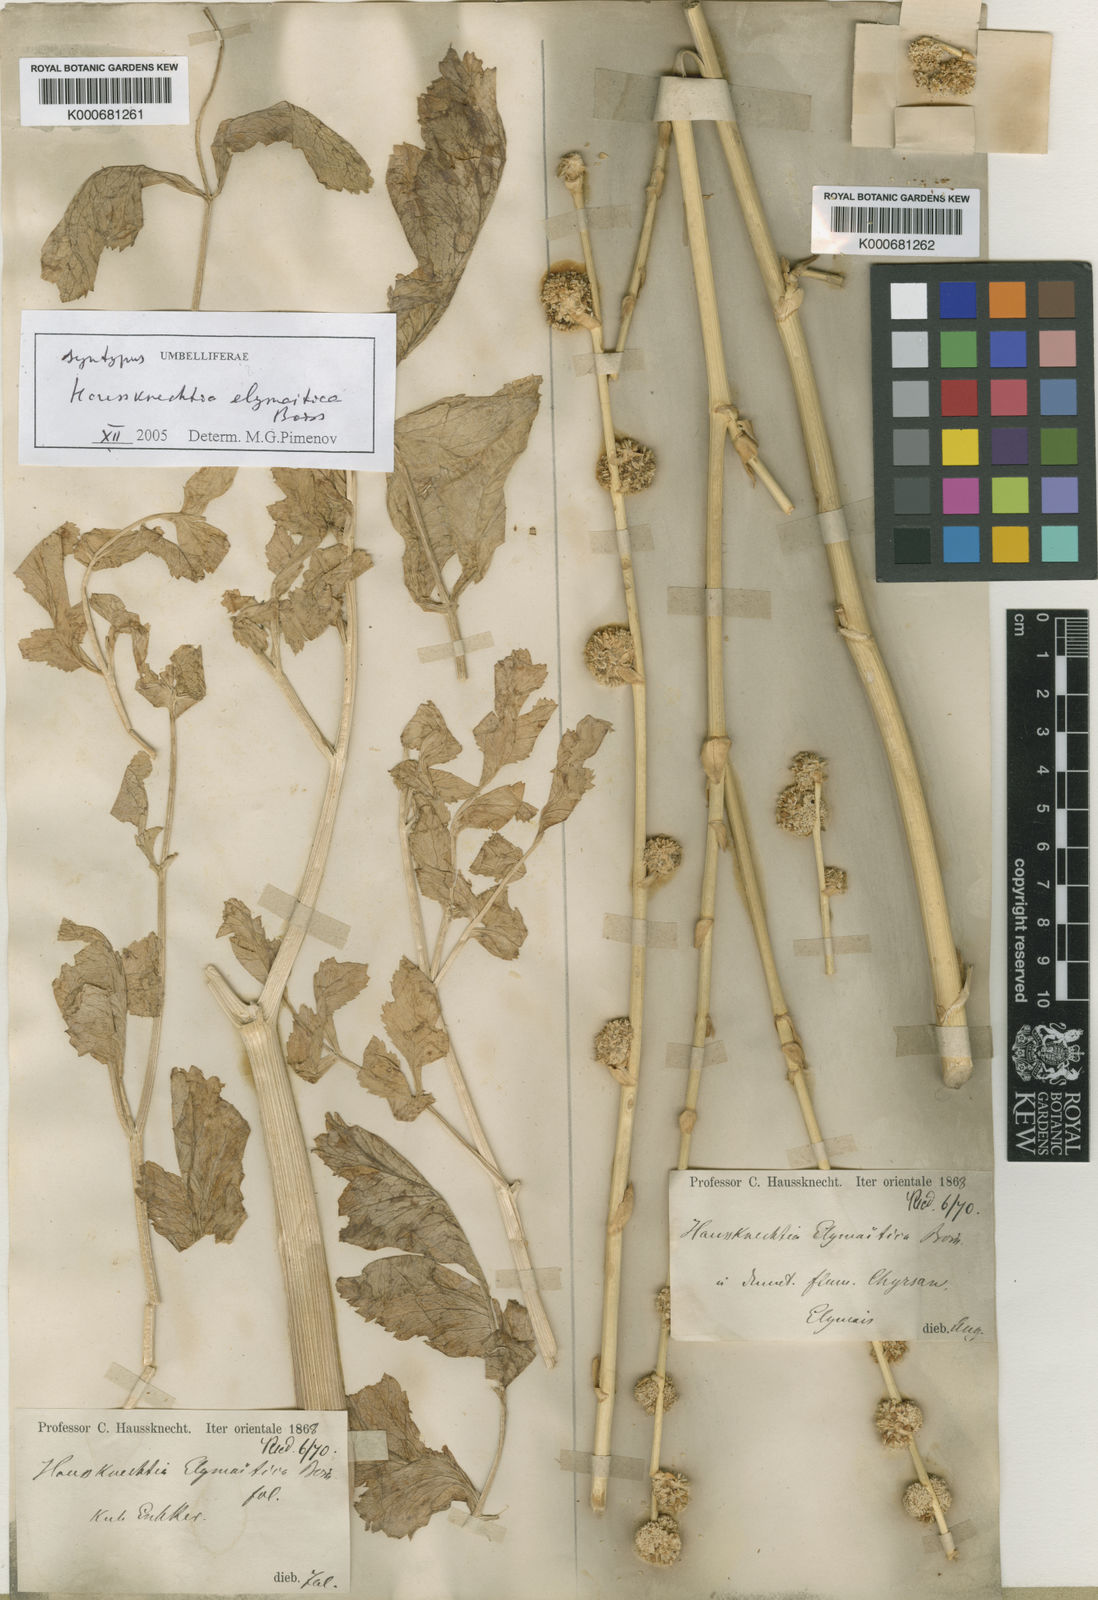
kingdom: Plantae
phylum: Tracheophyta
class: Magnoliopsida
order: Apiales
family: Apiaceae
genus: Haussknechtia
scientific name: Haussknechtia elymaitica
